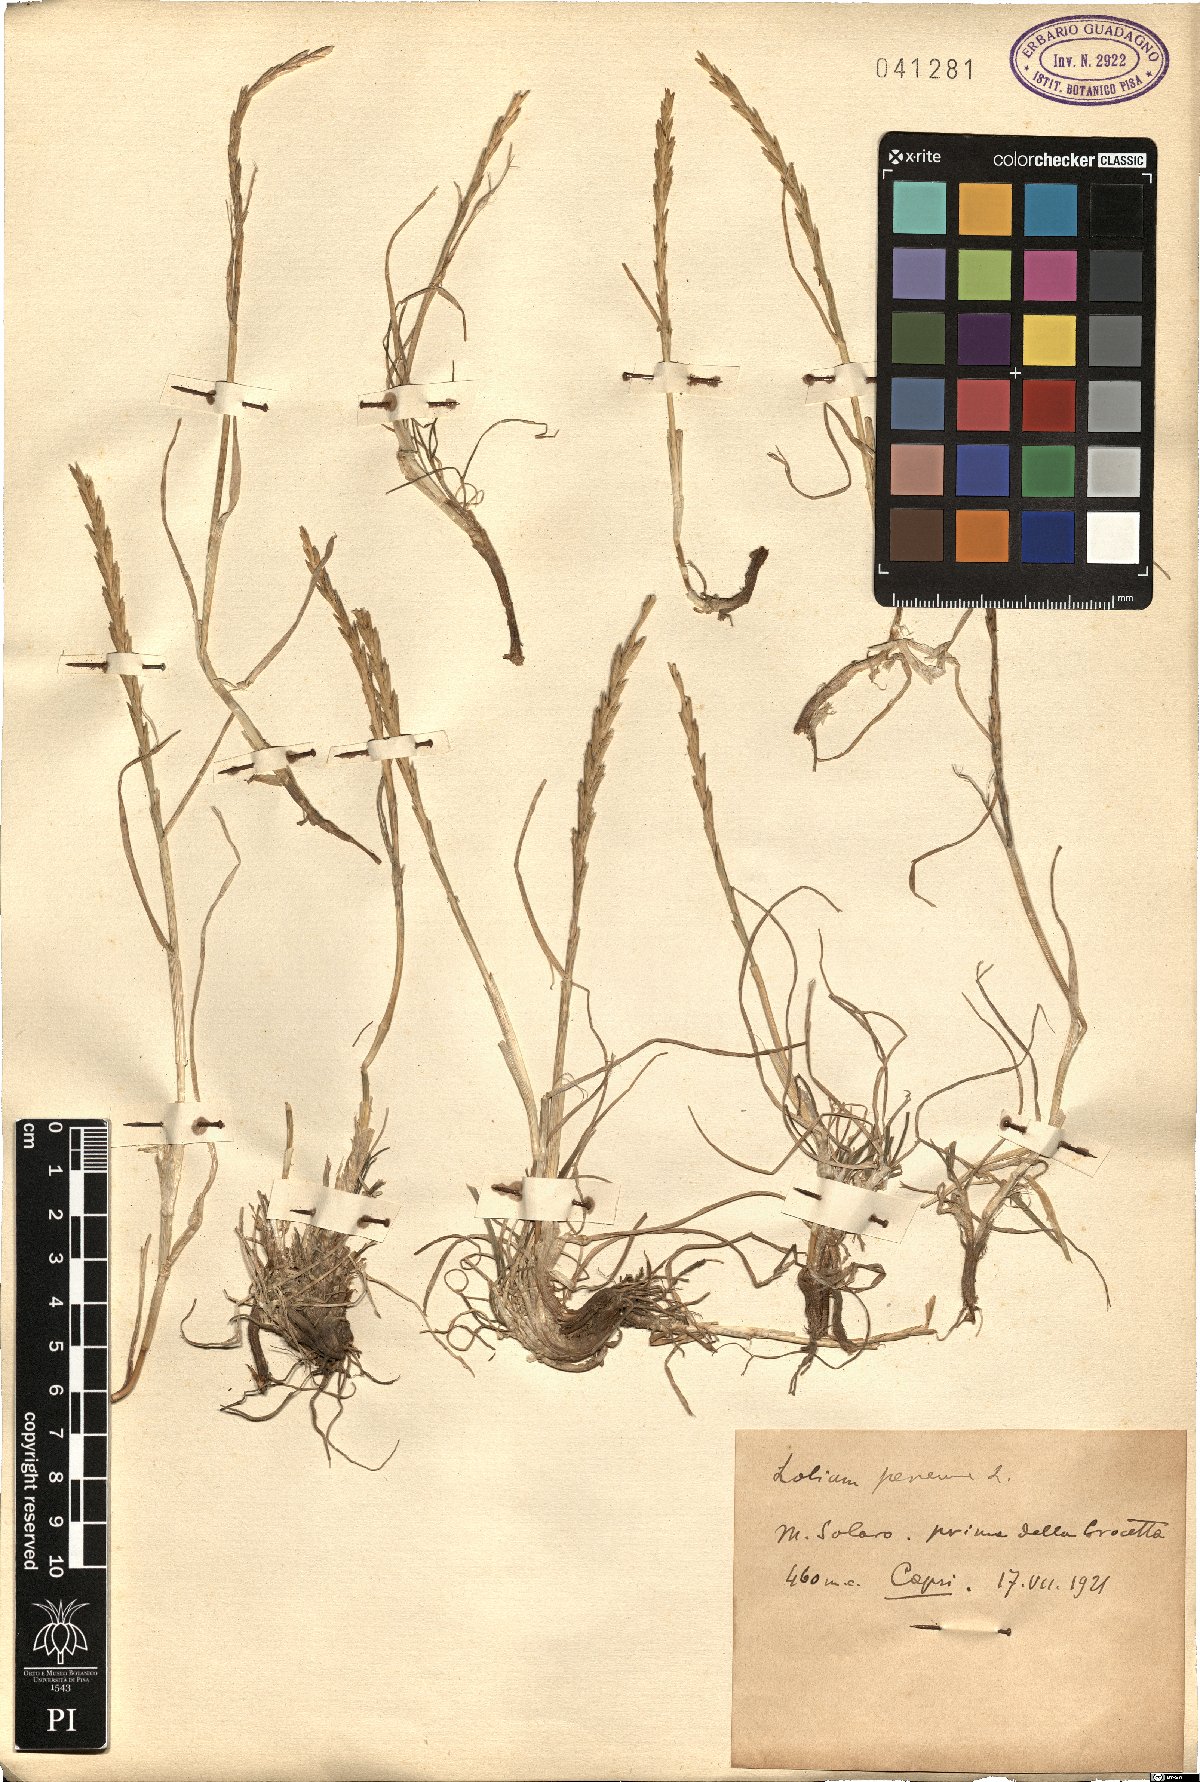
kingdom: Plantae
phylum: Tracheophyta
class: Liliopsida
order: Poales
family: Poaceae
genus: Lolium
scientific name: Lolium perenne
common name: Perennial ryegrass
